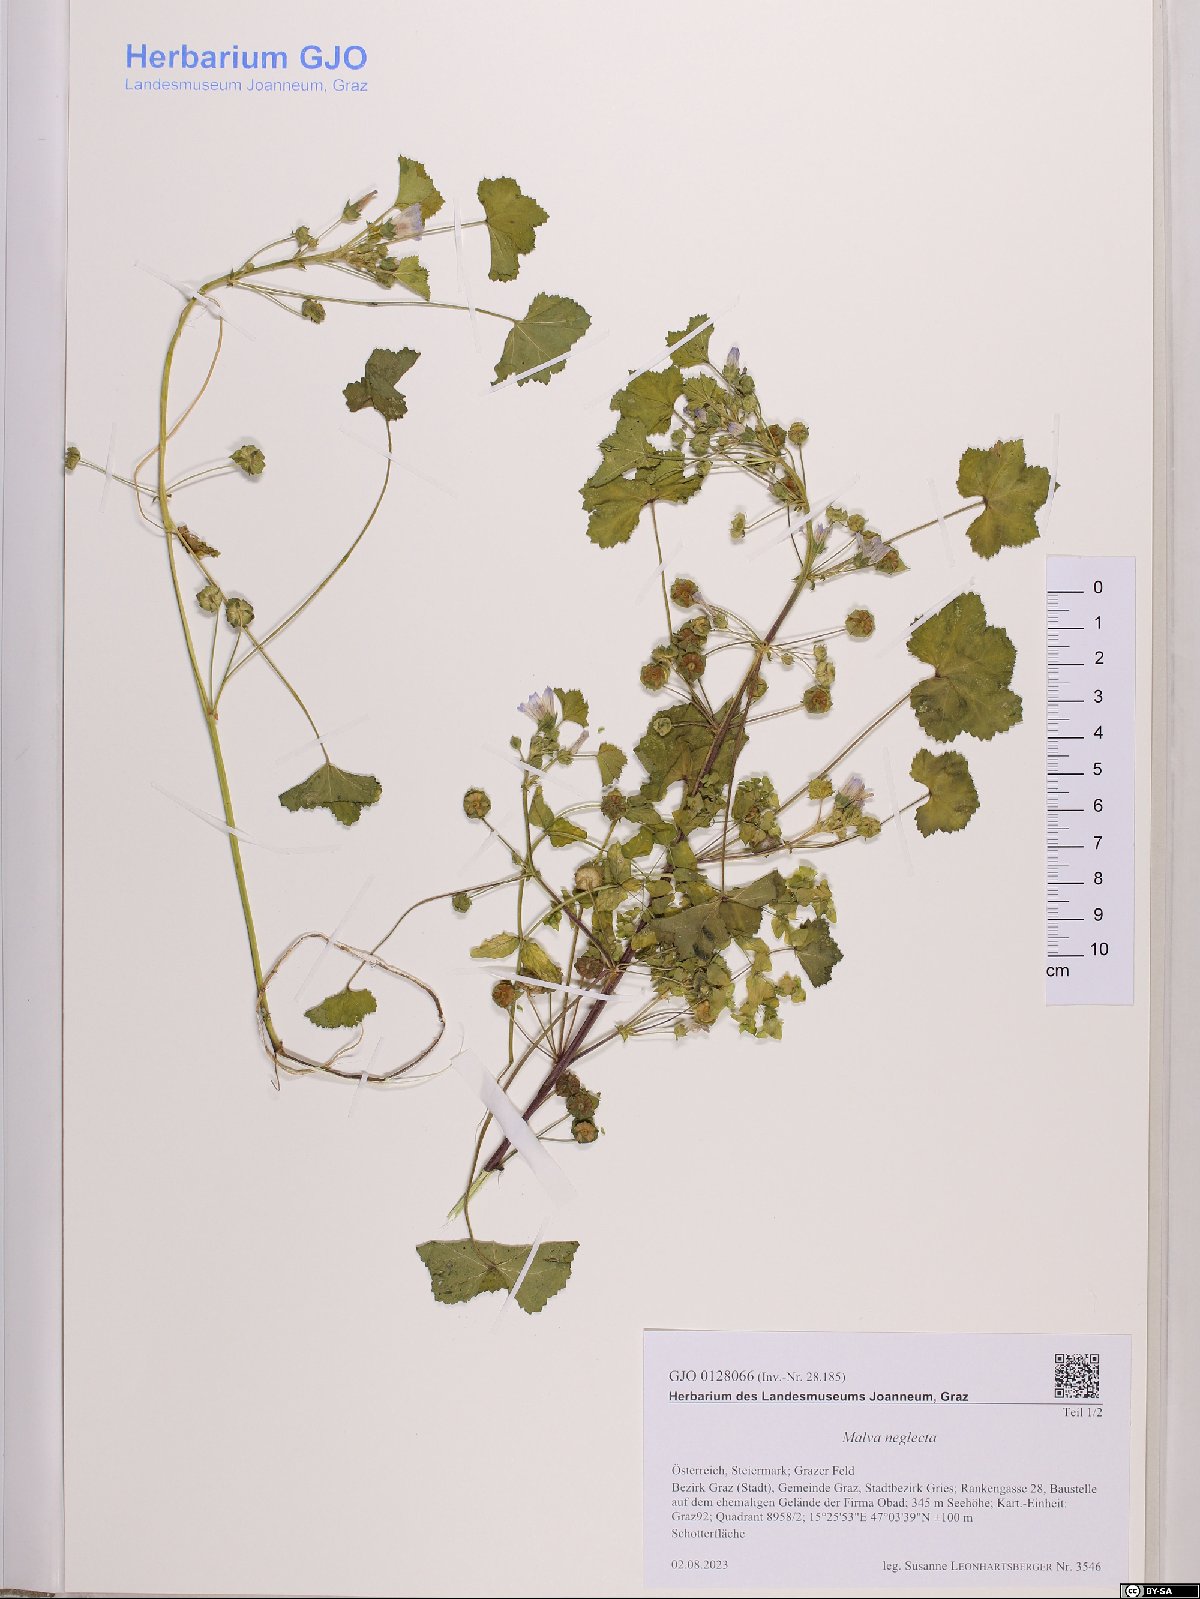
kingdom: Plantae
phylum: Tracheophyta
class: Magnoliopsida
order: Malvales
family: Malvaceae
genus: Malva
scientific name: Malva neglecta
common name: Common mallow
